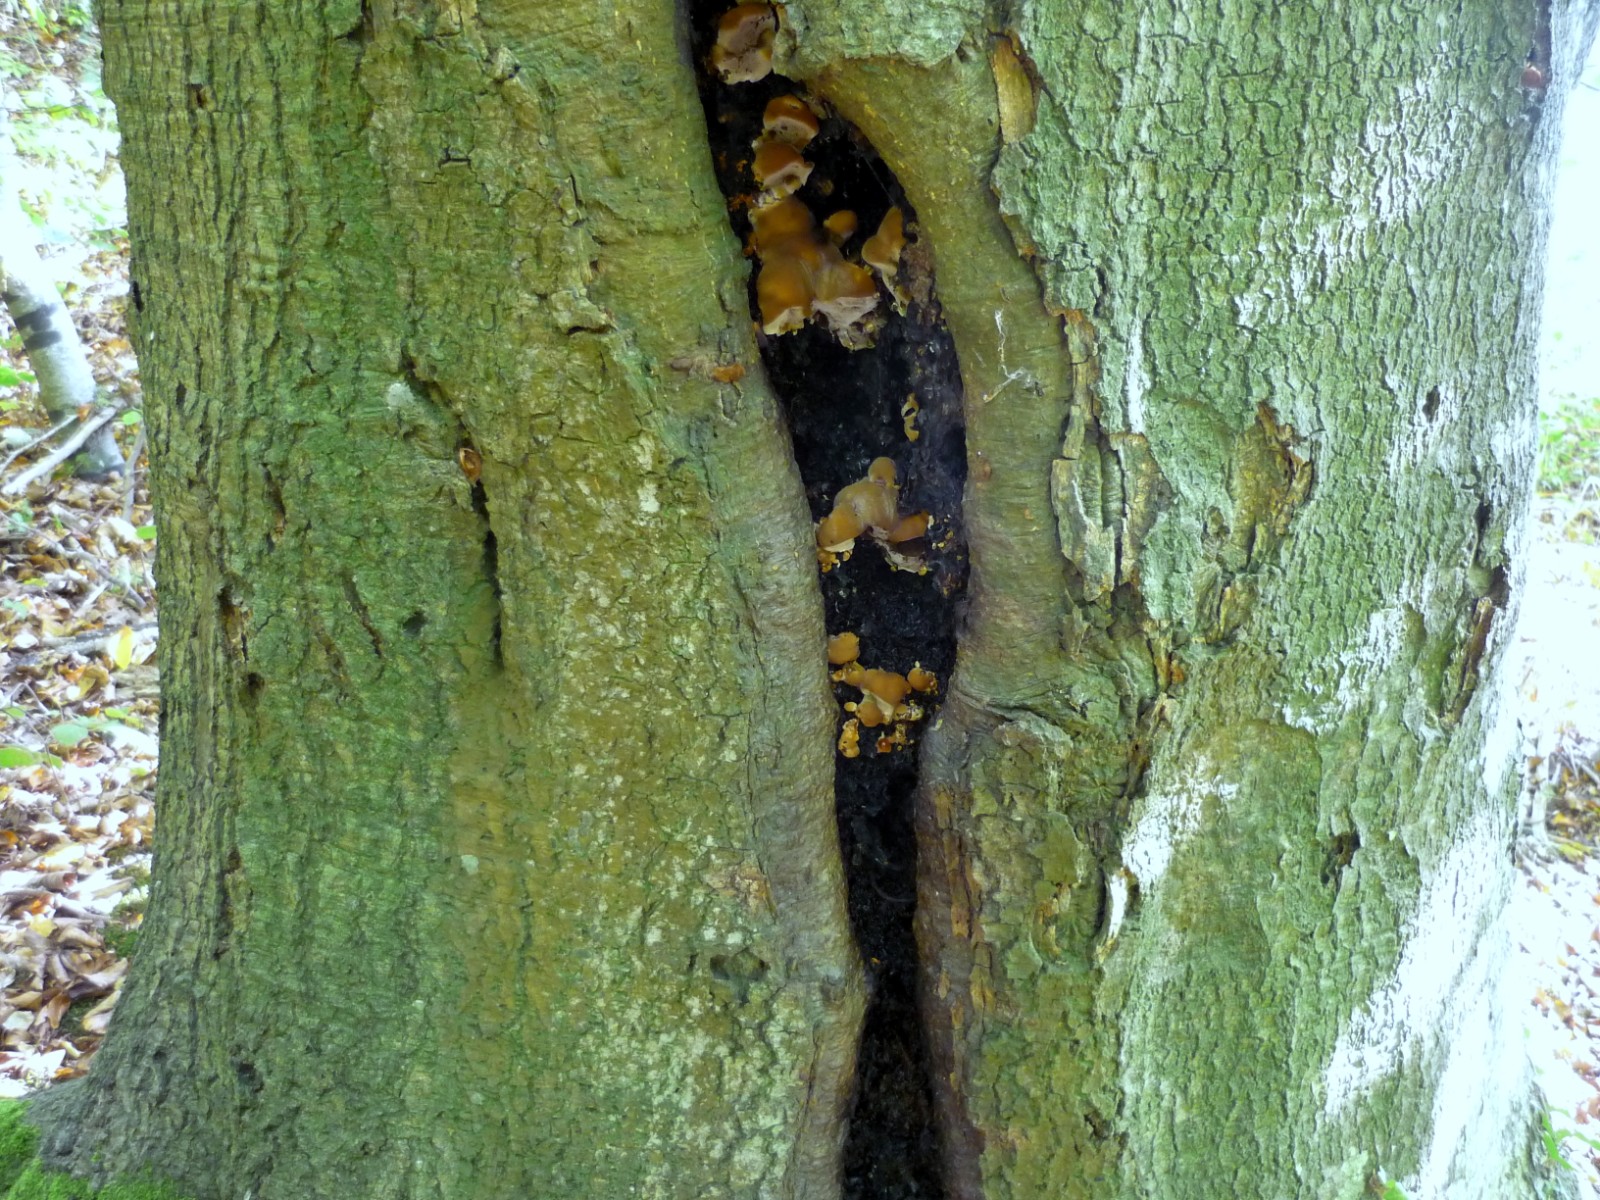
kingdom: Fungi
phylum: Basidiomycota
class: Agaricomycetes
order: Hymenochaetales
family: Hymenochaetaceae
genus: Inonotus
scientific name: Inonotus cuticularis
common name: kroghåret spejlporesvamp
